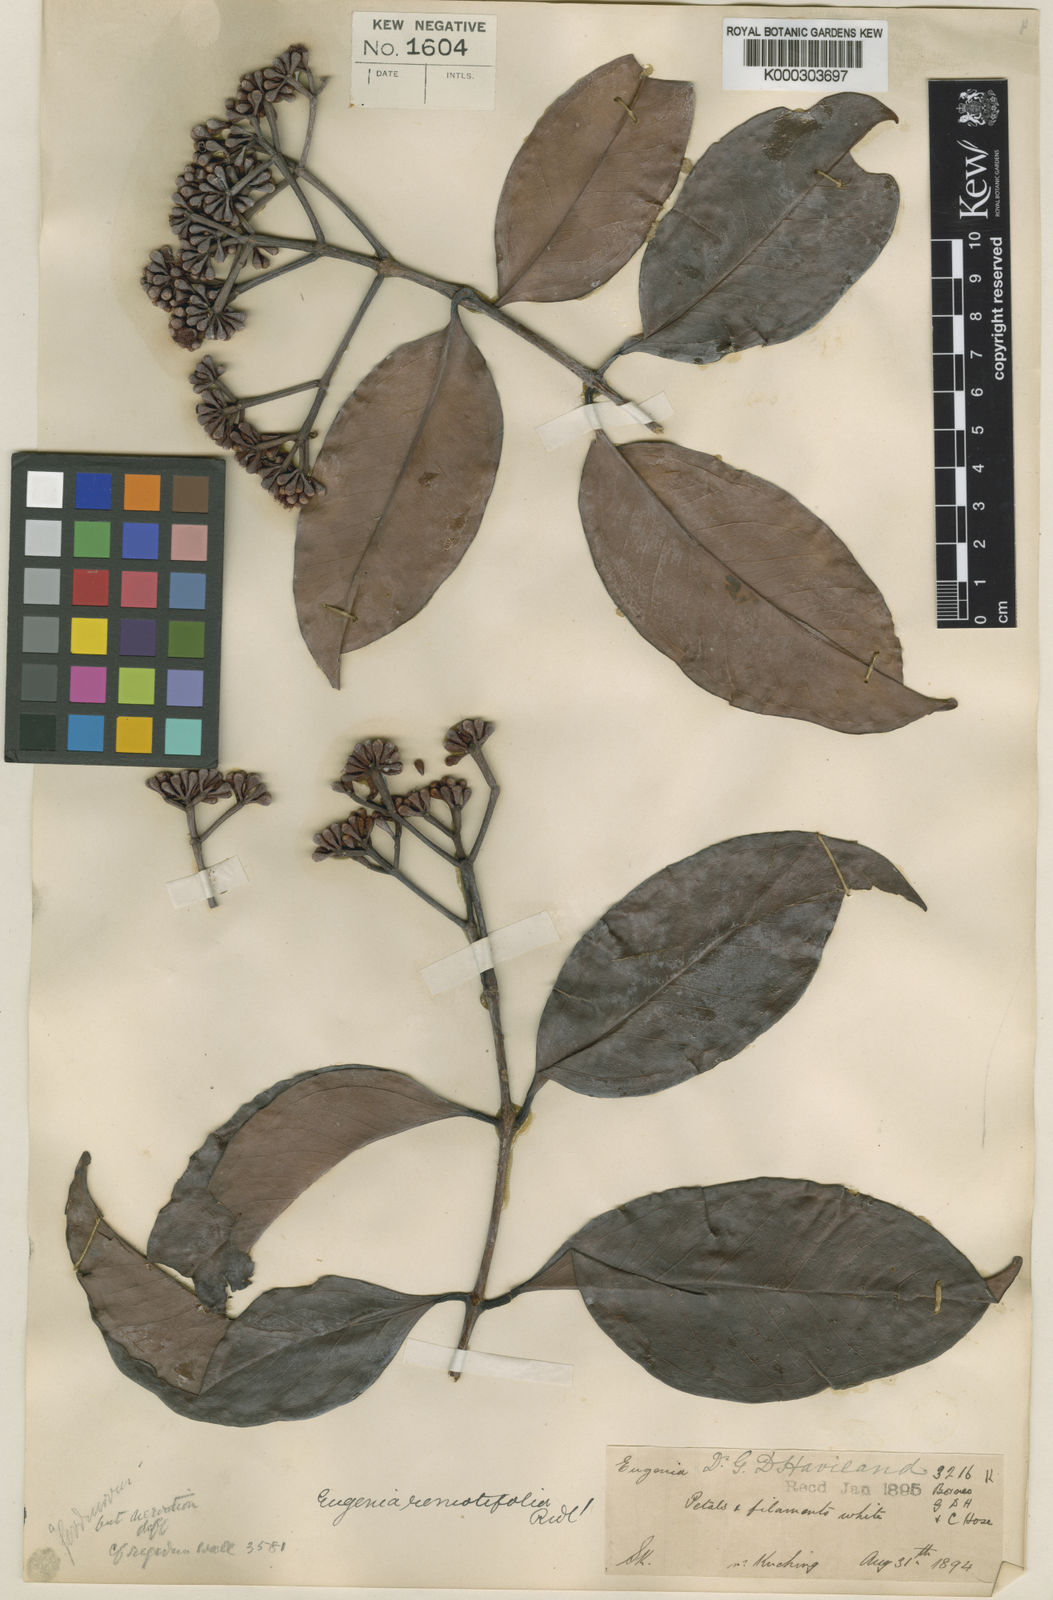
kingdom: Plantae
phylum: Tracheophyta
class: Magnoliopsida
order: Myrtales
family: Myrtaceae
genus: Syzygium
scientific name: Syzygium remotifolium
